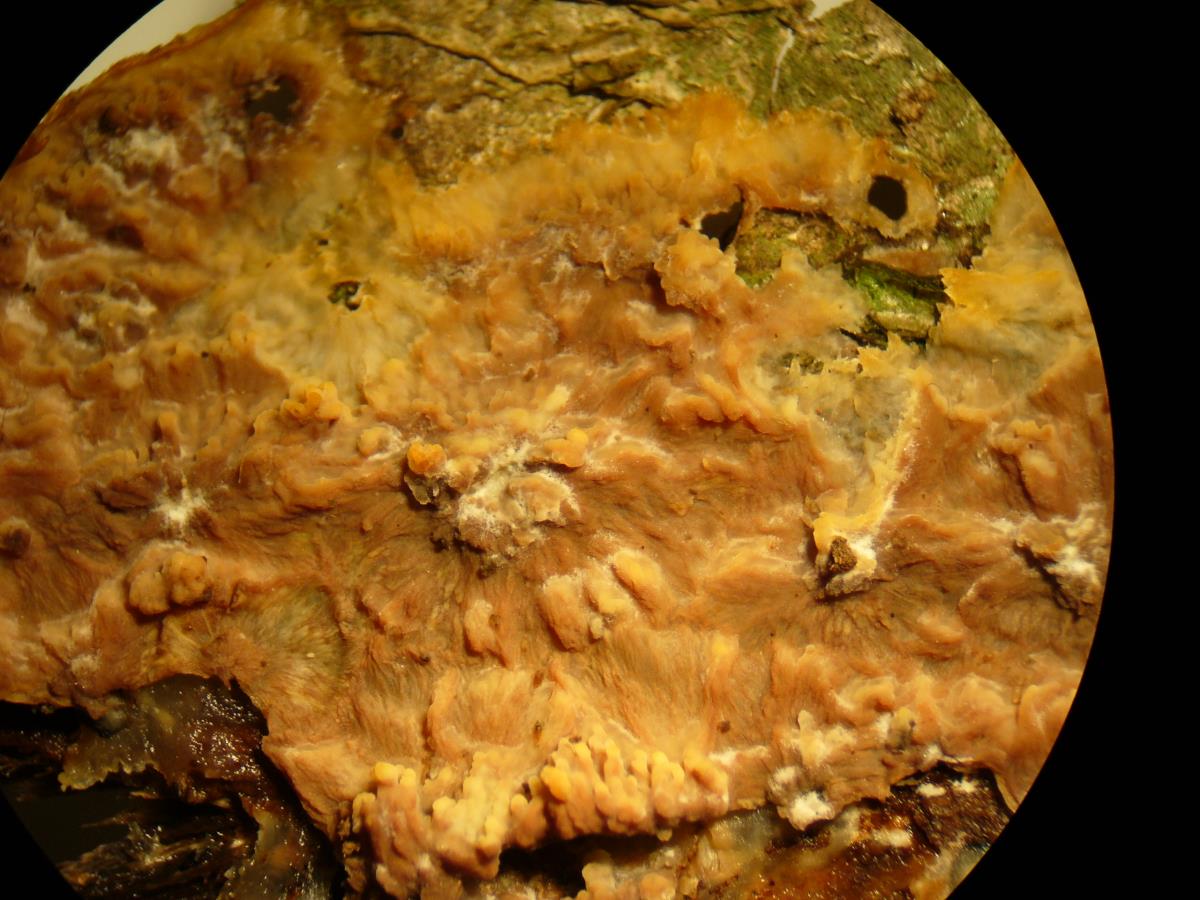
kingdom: Fungi
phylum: Basidiomycota
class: Agaricomycetes
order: Polyporales
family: Meruliaceae
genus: Phlebia
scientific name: Phlebia radiata
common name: Wrinkled crust
